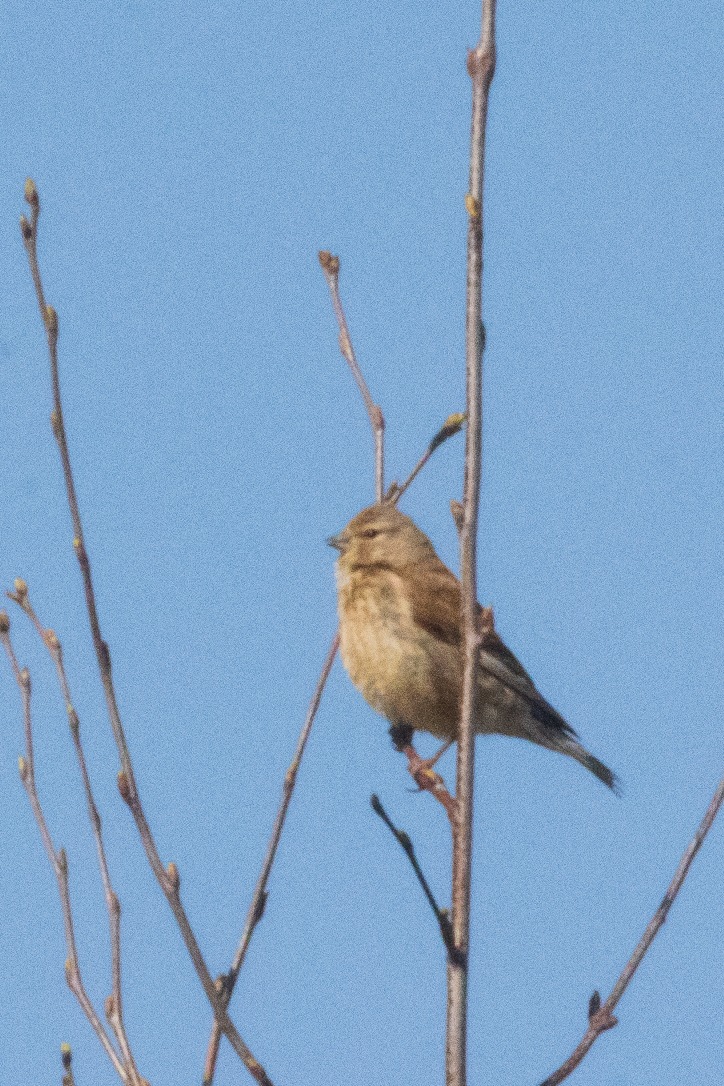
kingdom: Animalia
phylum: Chordata
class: Aves
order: Passeriformes
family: Fringillidae
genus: Linaria
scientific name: Linaria cannabina
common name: Tornirisk
